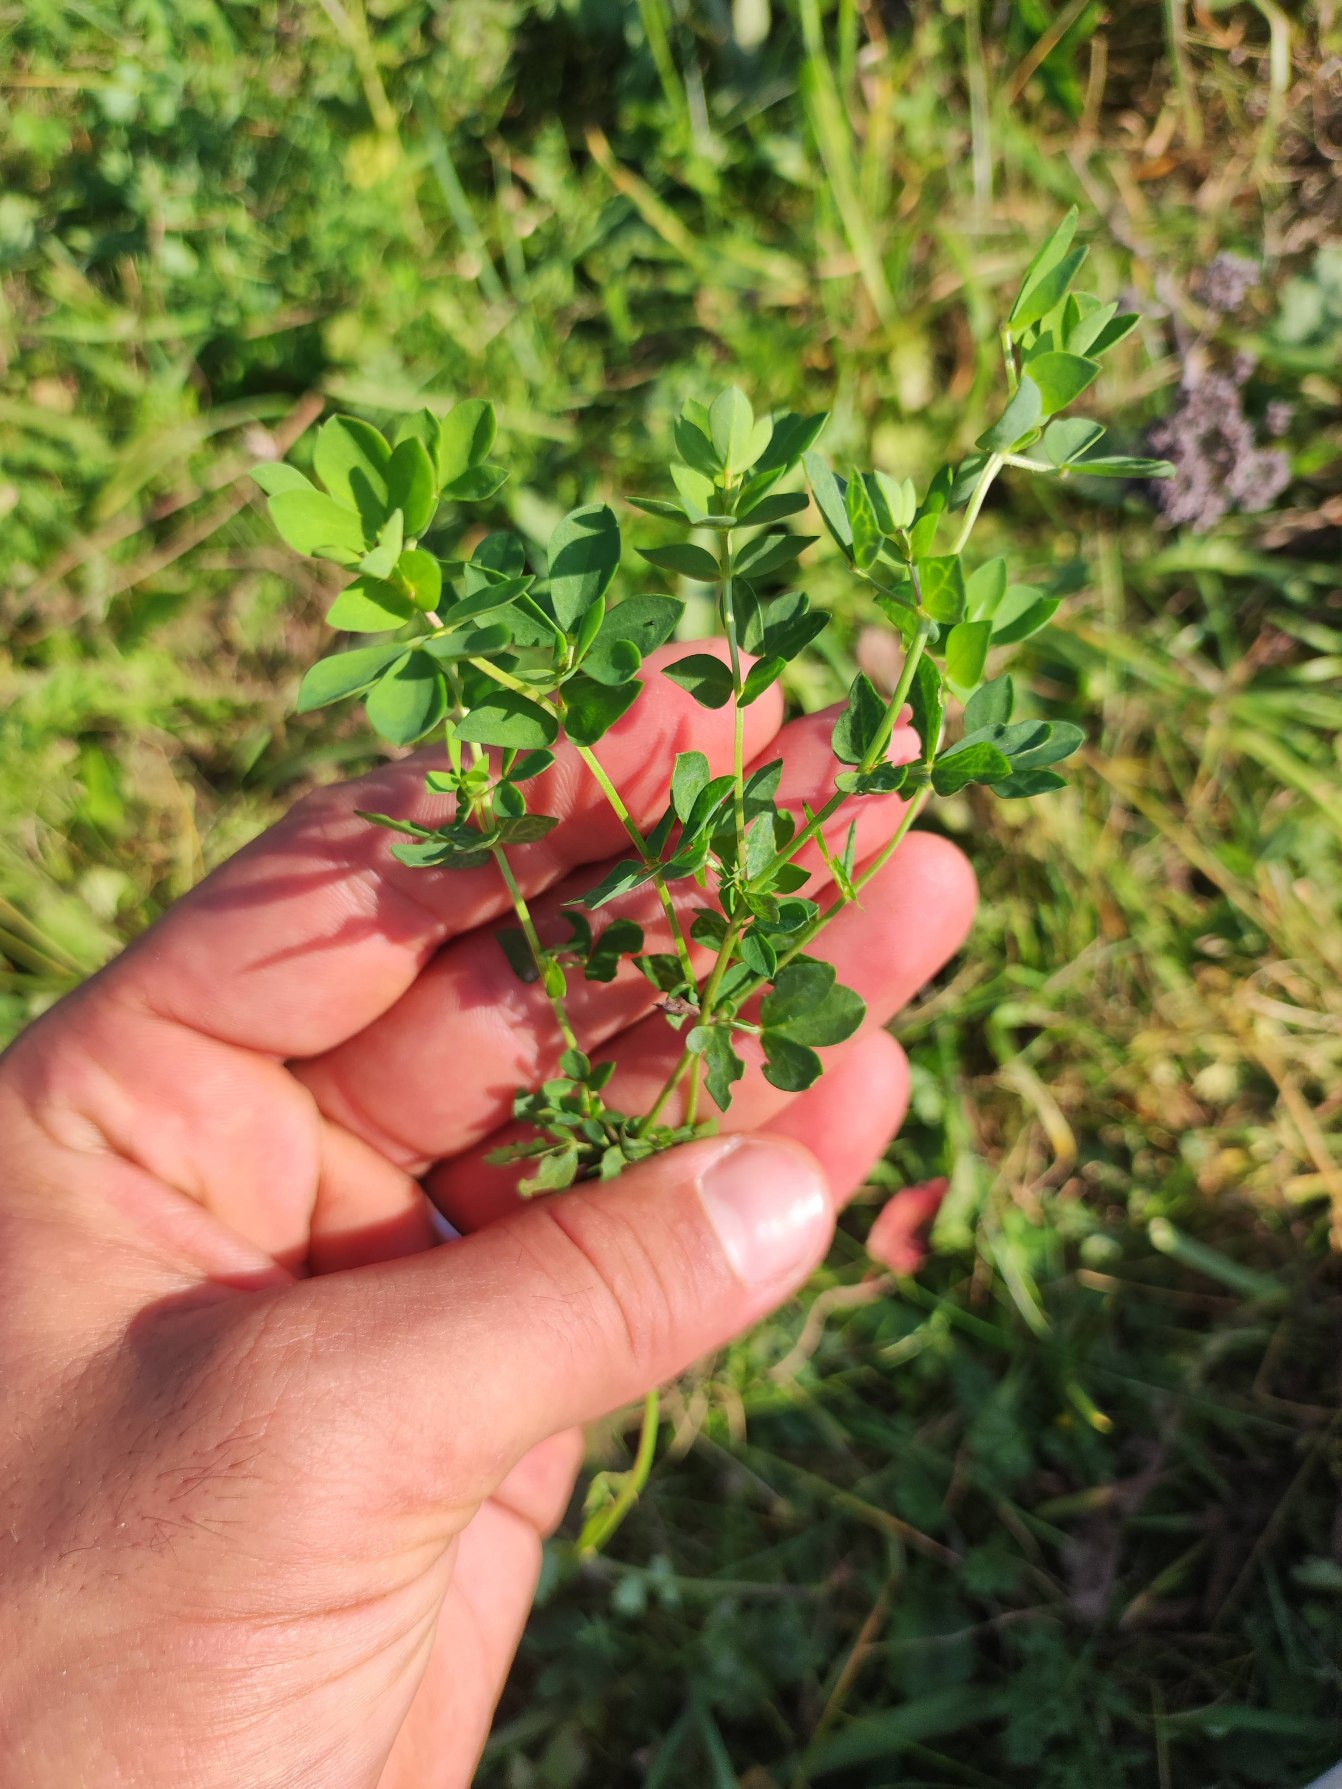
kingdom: Plantae
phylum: Tracheophyta
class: Magnoliopsida
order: Fabales
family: Fabaceae
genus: Lotus
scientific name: Lotus corniculatus
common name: Almindelig kællingetand
